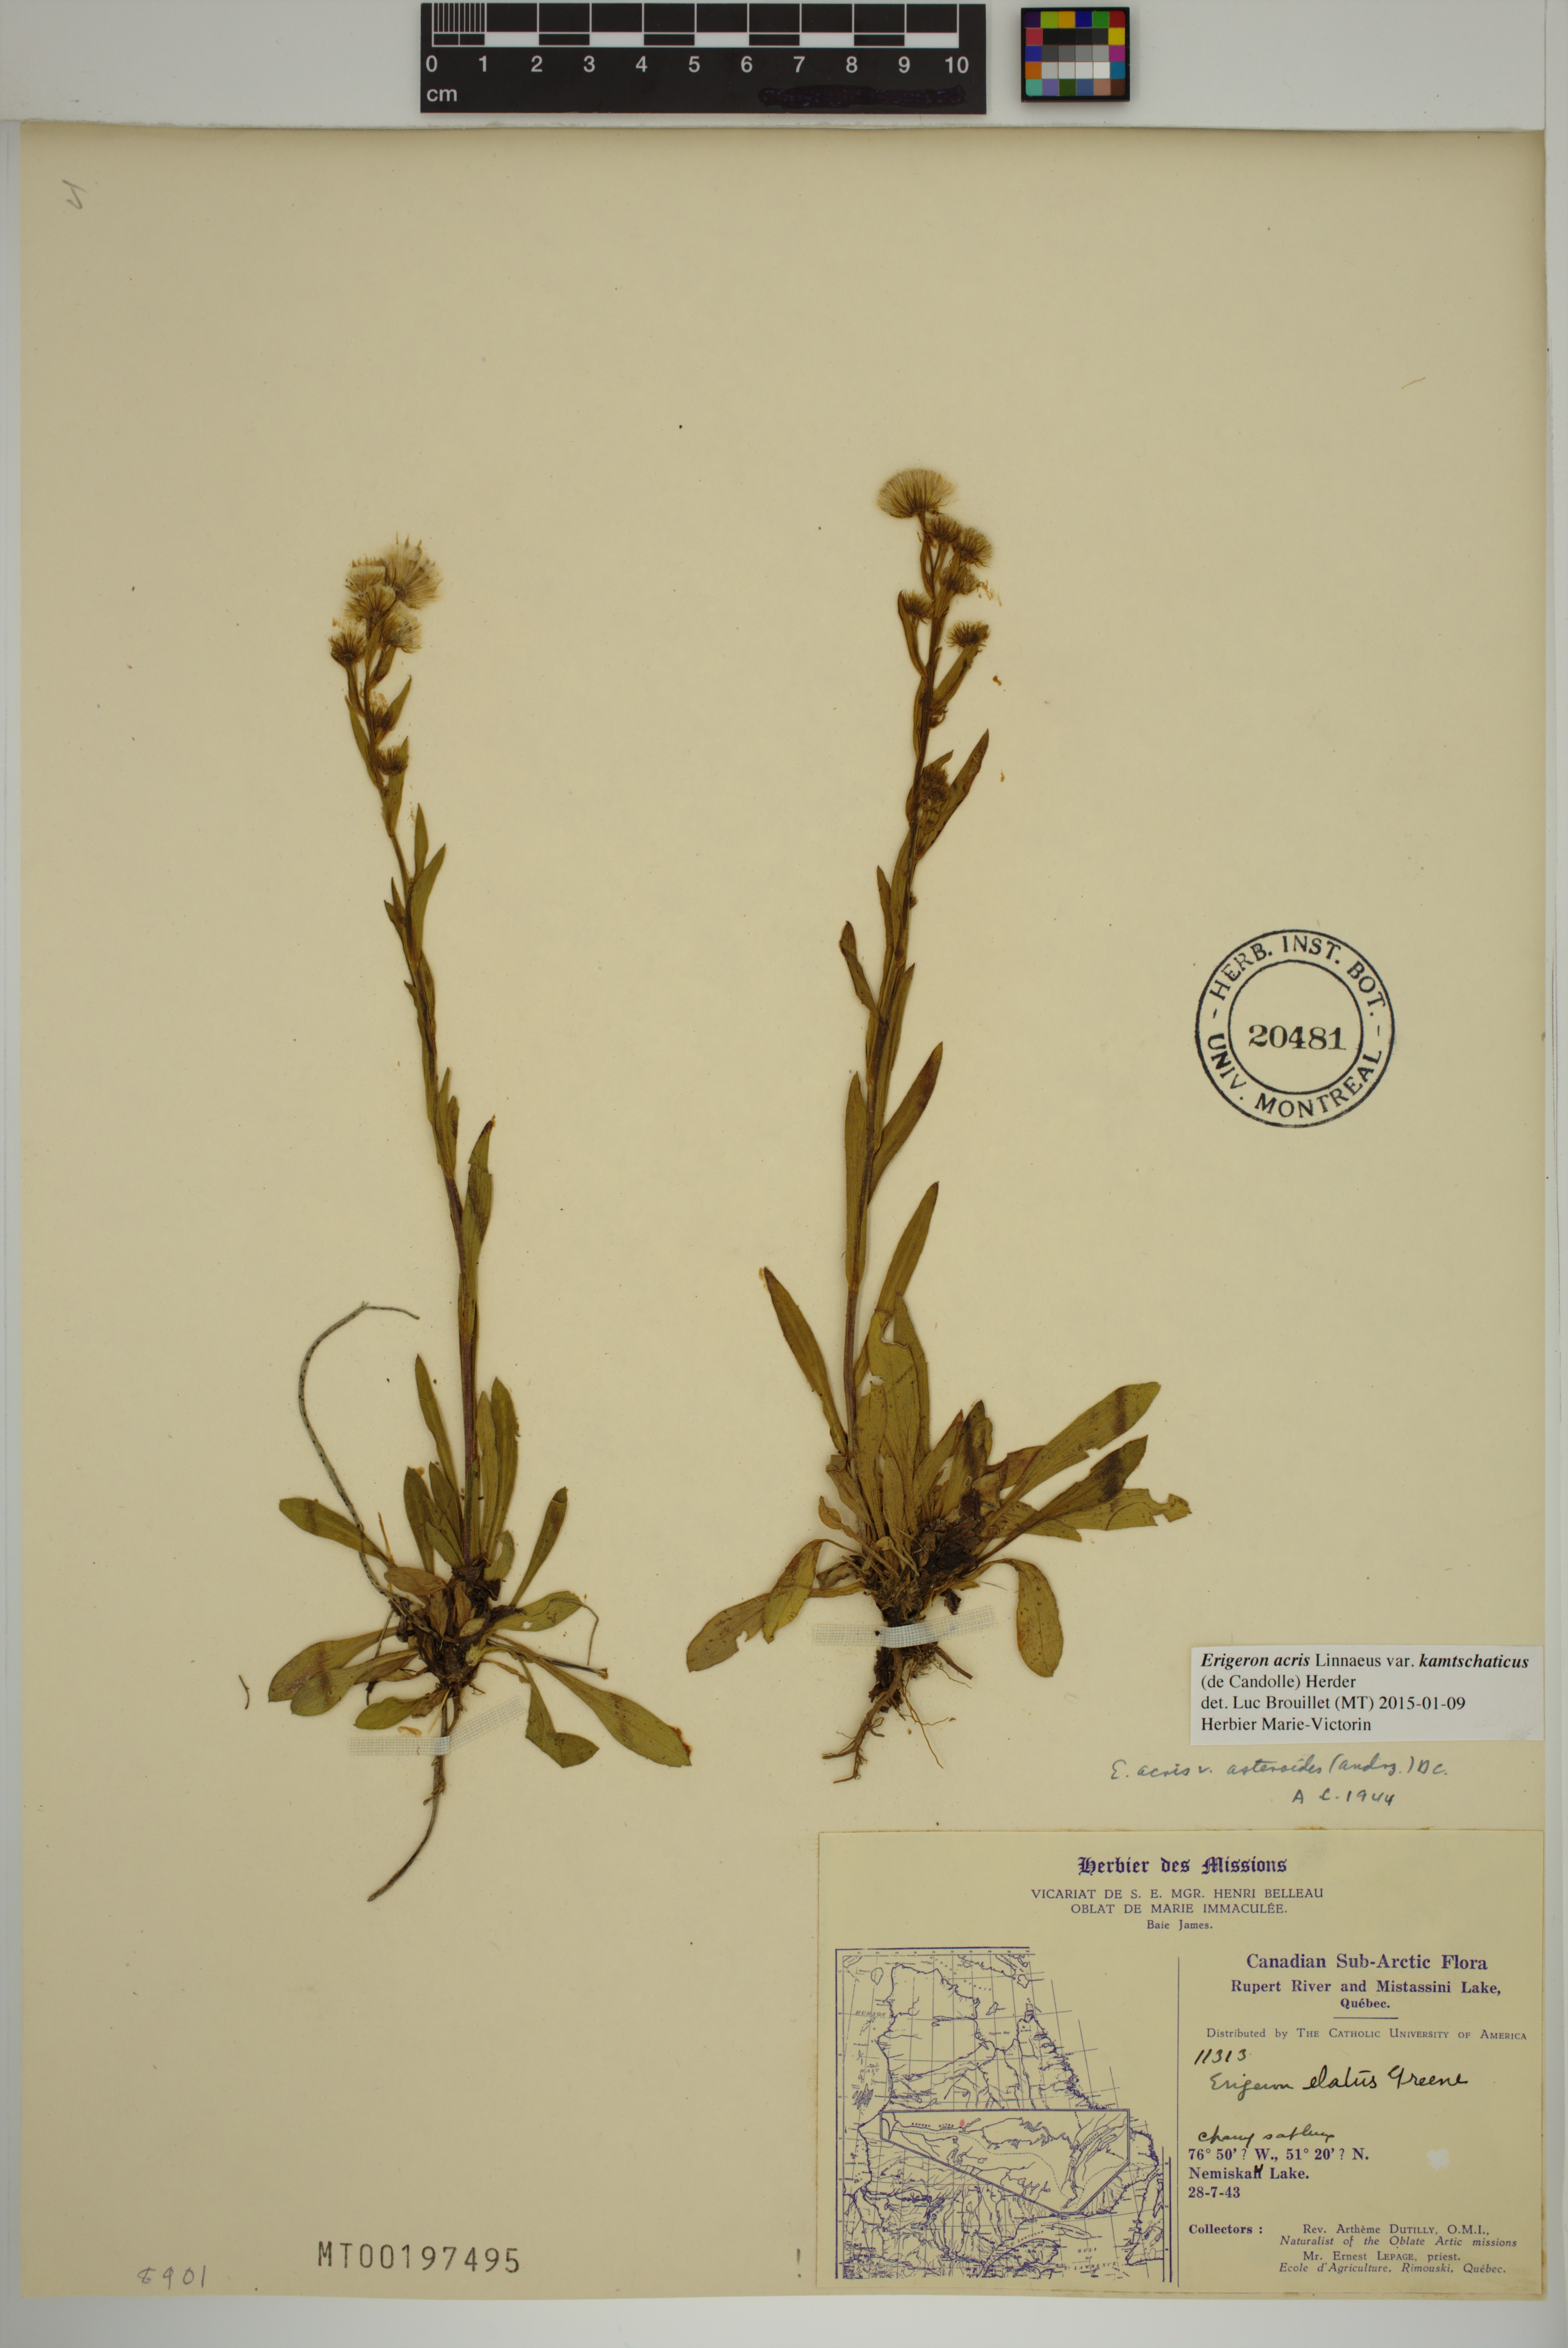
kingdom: Plantae
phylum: Tracheophyta
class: Magnoliopsida
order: Asterales
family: Asteraceae
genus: Erigeron
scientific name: Erigeron kamtschaticus
